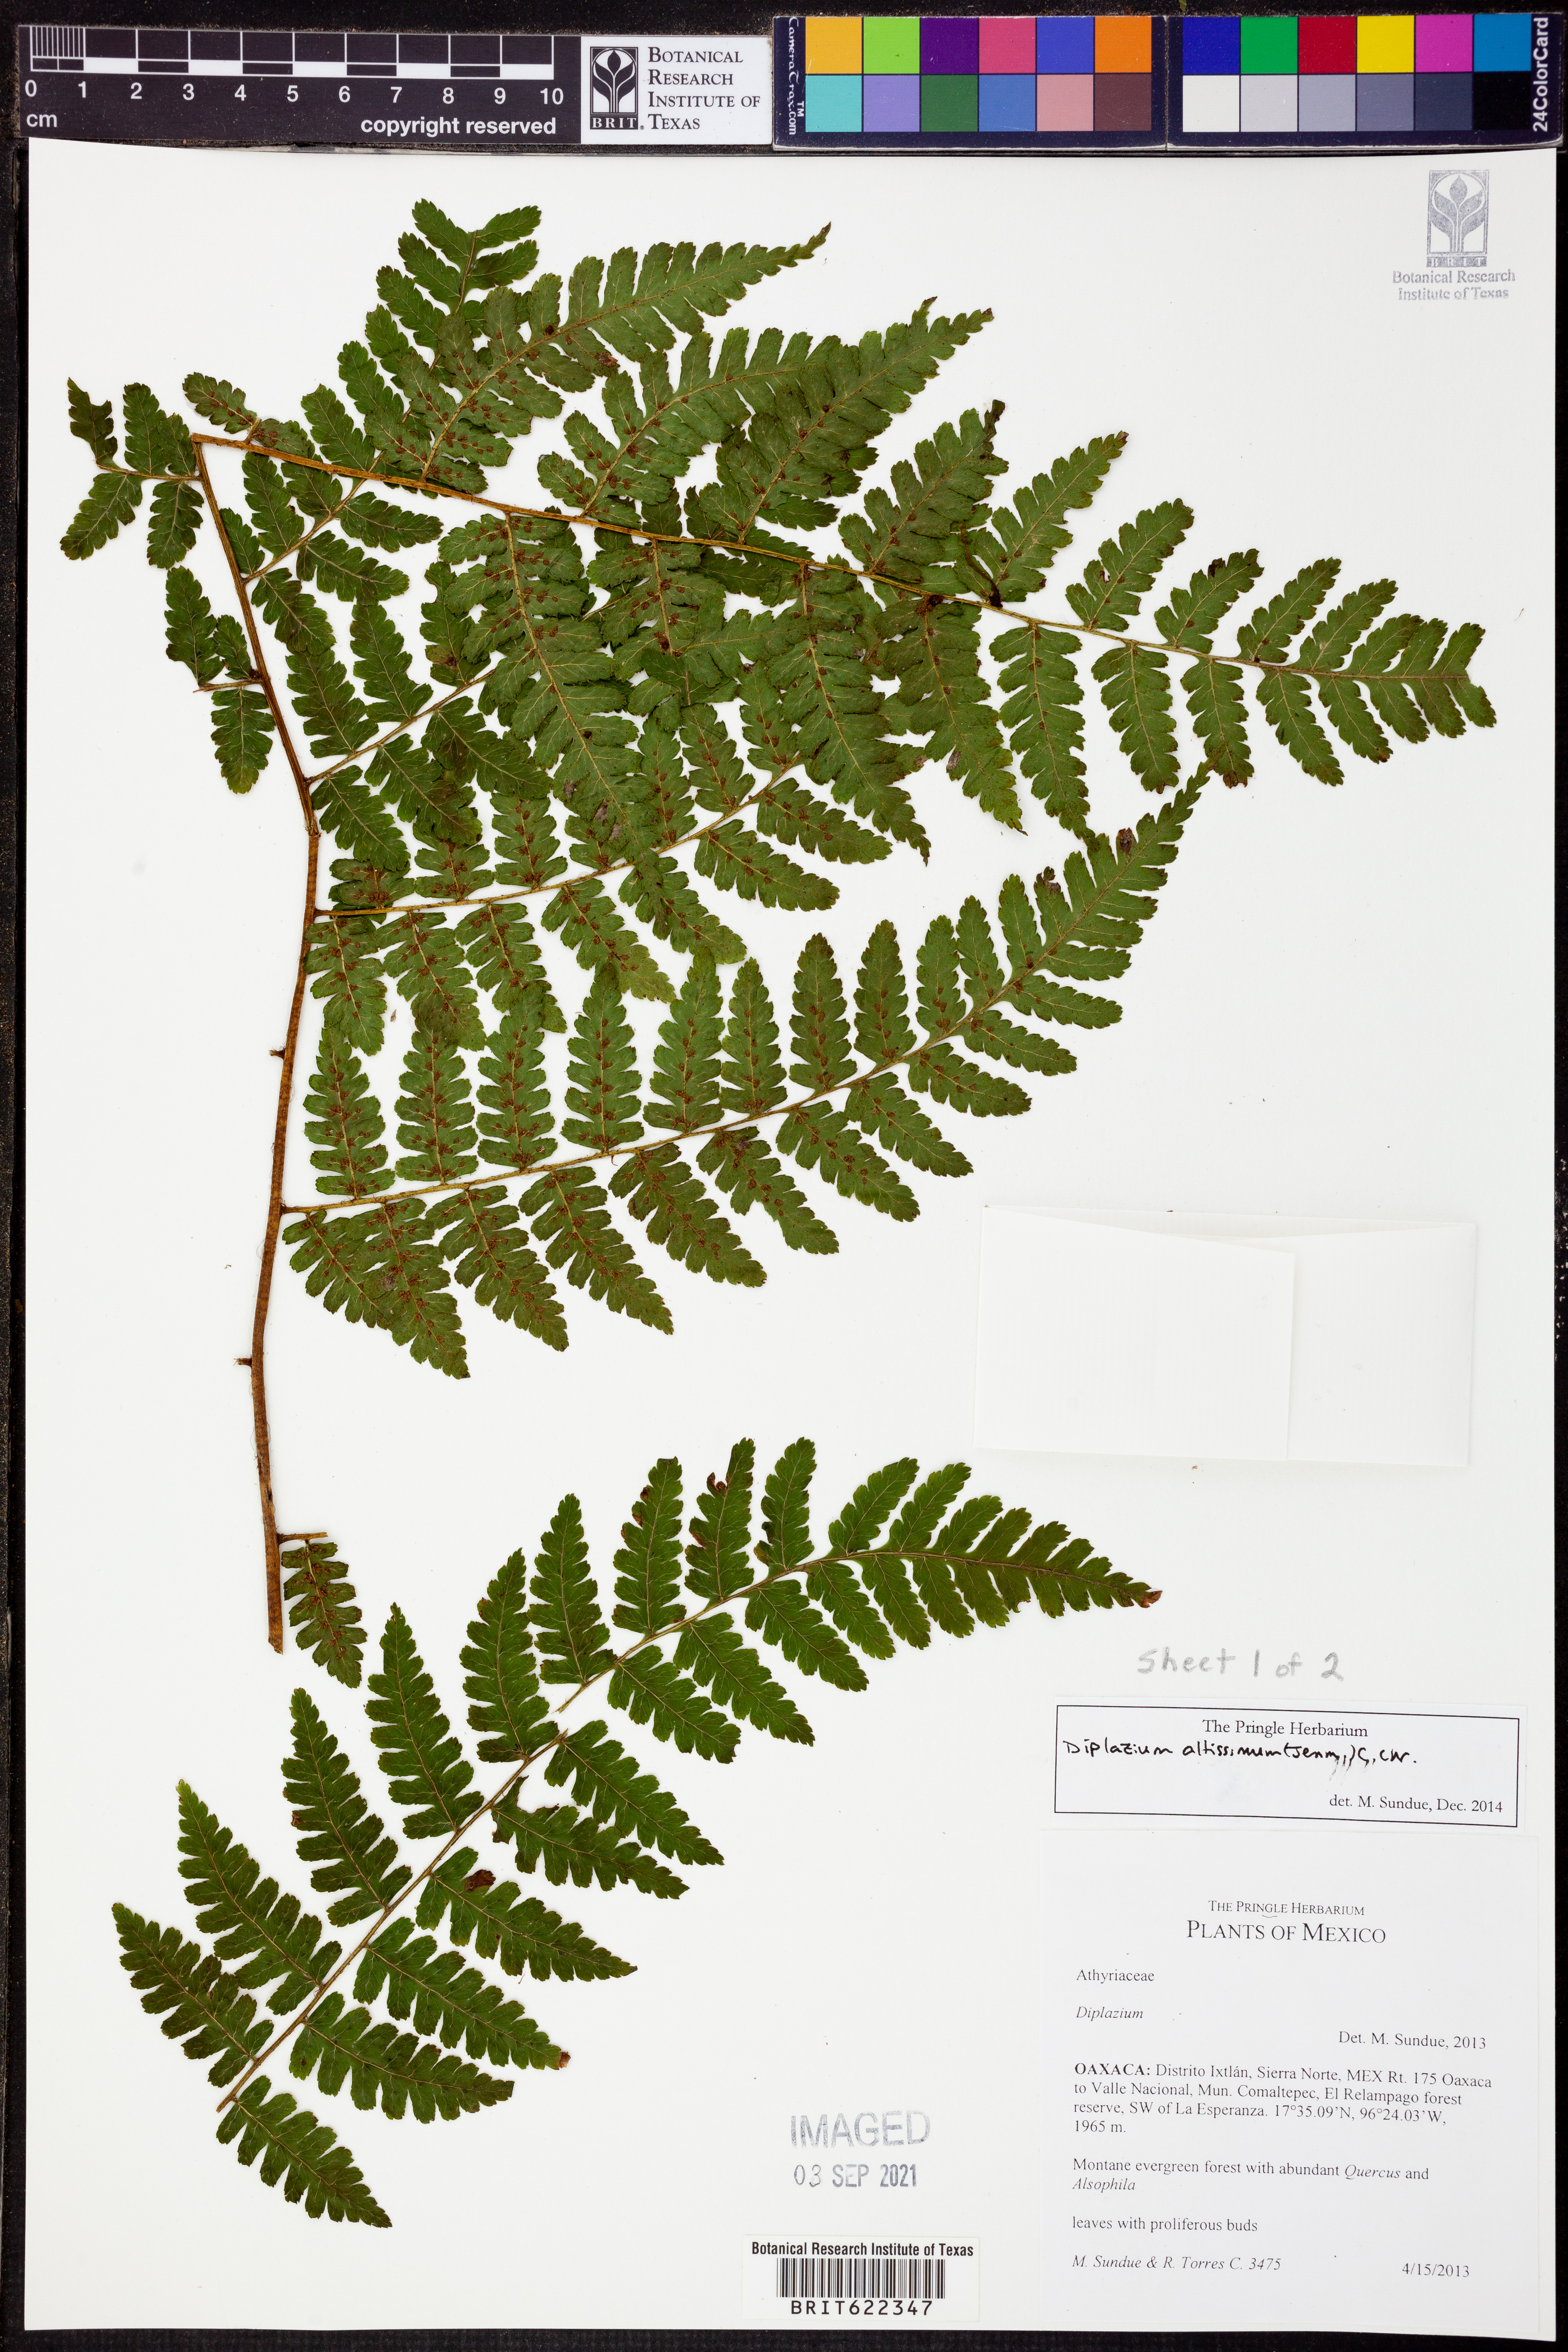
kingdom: Plantae
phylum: Tracheophyta
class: Polypodiopsida
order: Polypodiales
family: Athyriaceae
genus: Diplazium
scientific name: Diplazium altissimum
